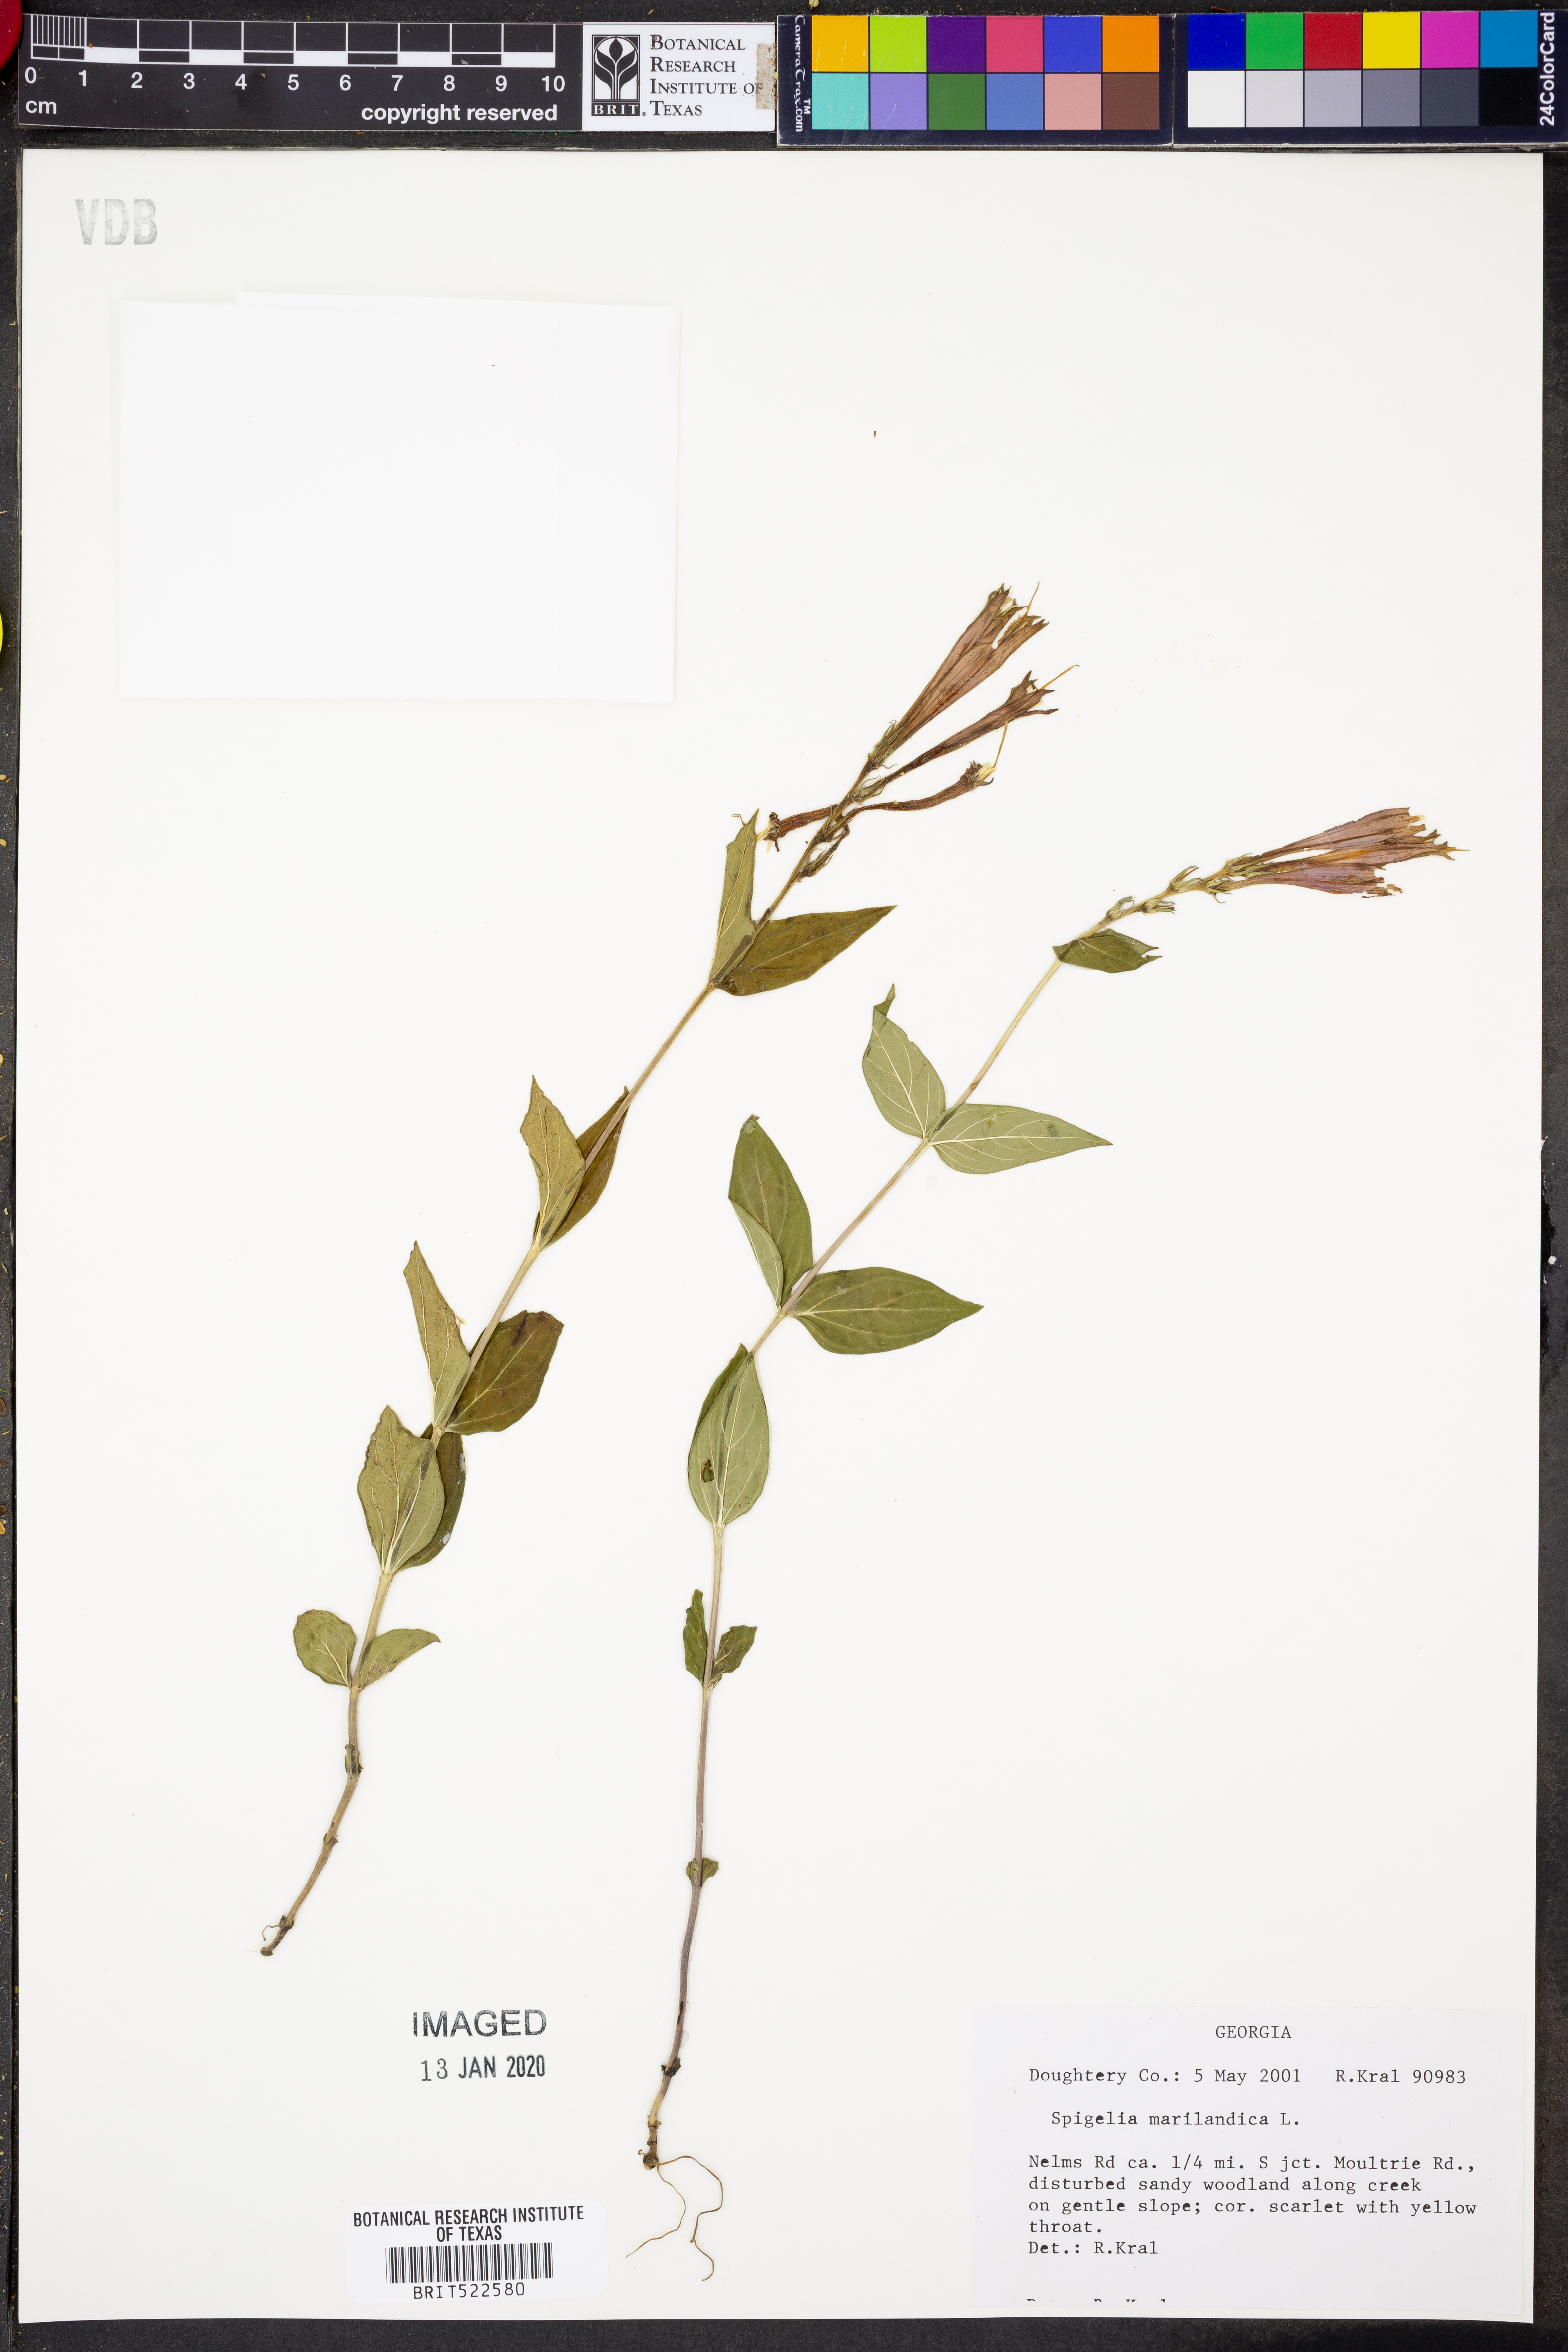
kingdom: Plantae
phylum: Tracheophyta
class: Magnoliopsida
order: Gentianales
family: Loganiaceae
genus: Spigelia
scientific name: Spigelia marilandica
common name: Indian-pink
